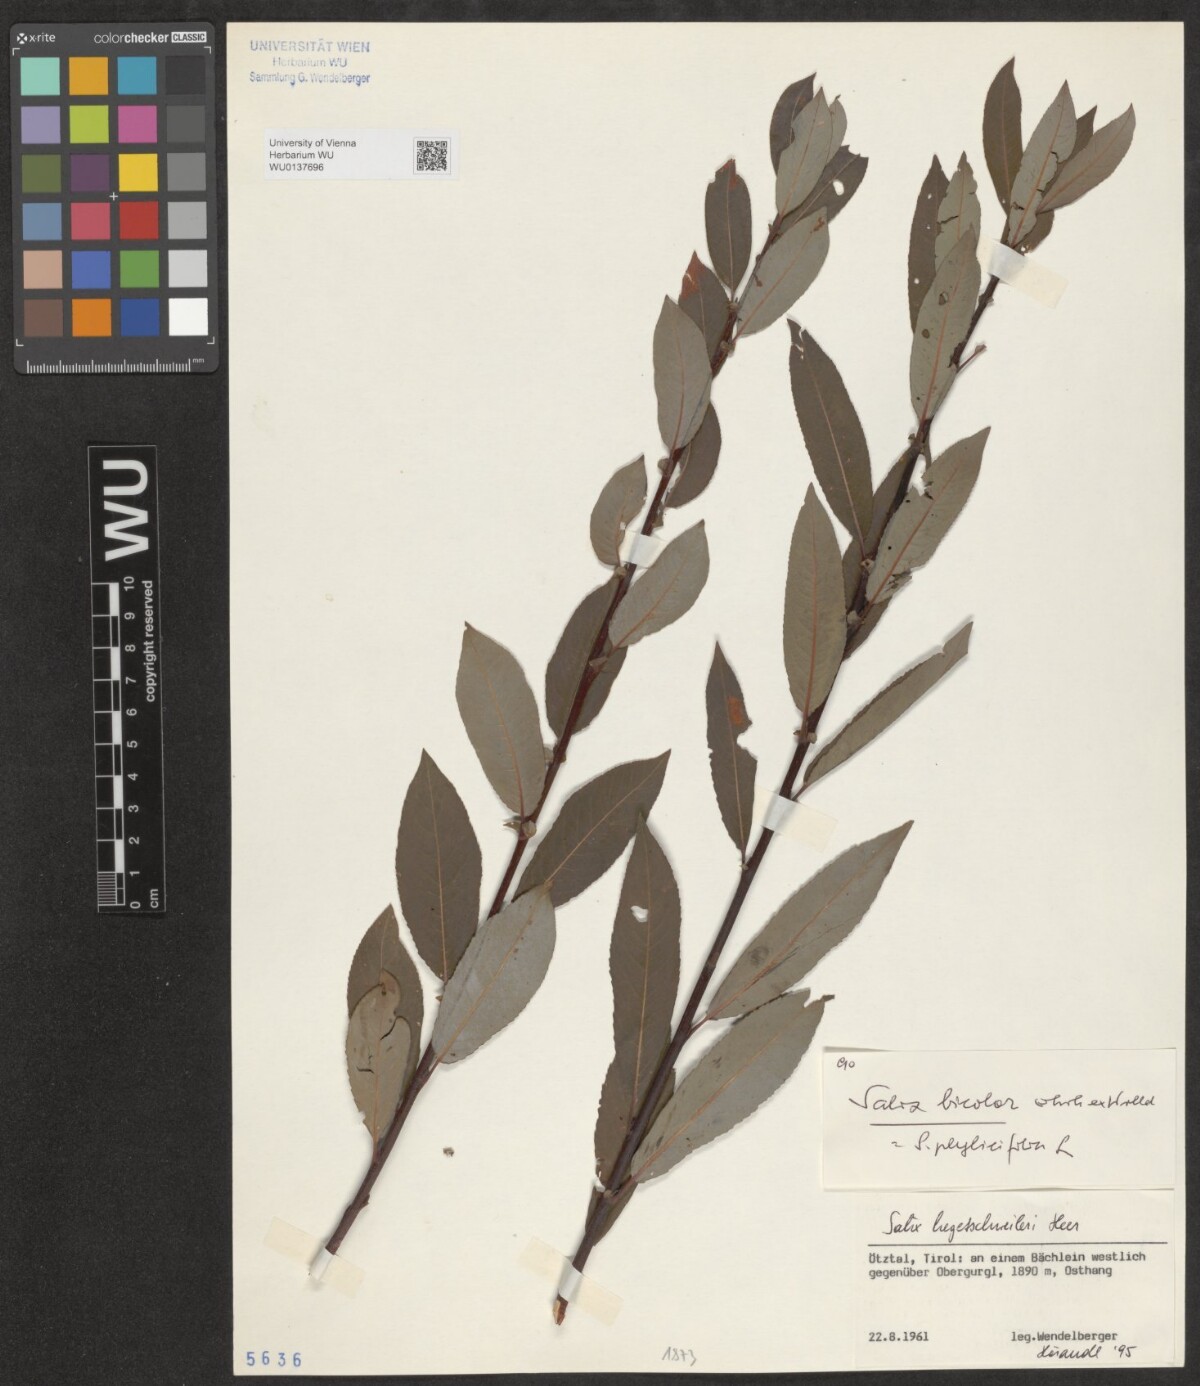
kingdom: Plantae
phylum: Tracheophyta
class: Magnoliopsida
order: Malpighiales
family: Salicaceae
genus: Salix
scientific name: Salix hegetschweileri
